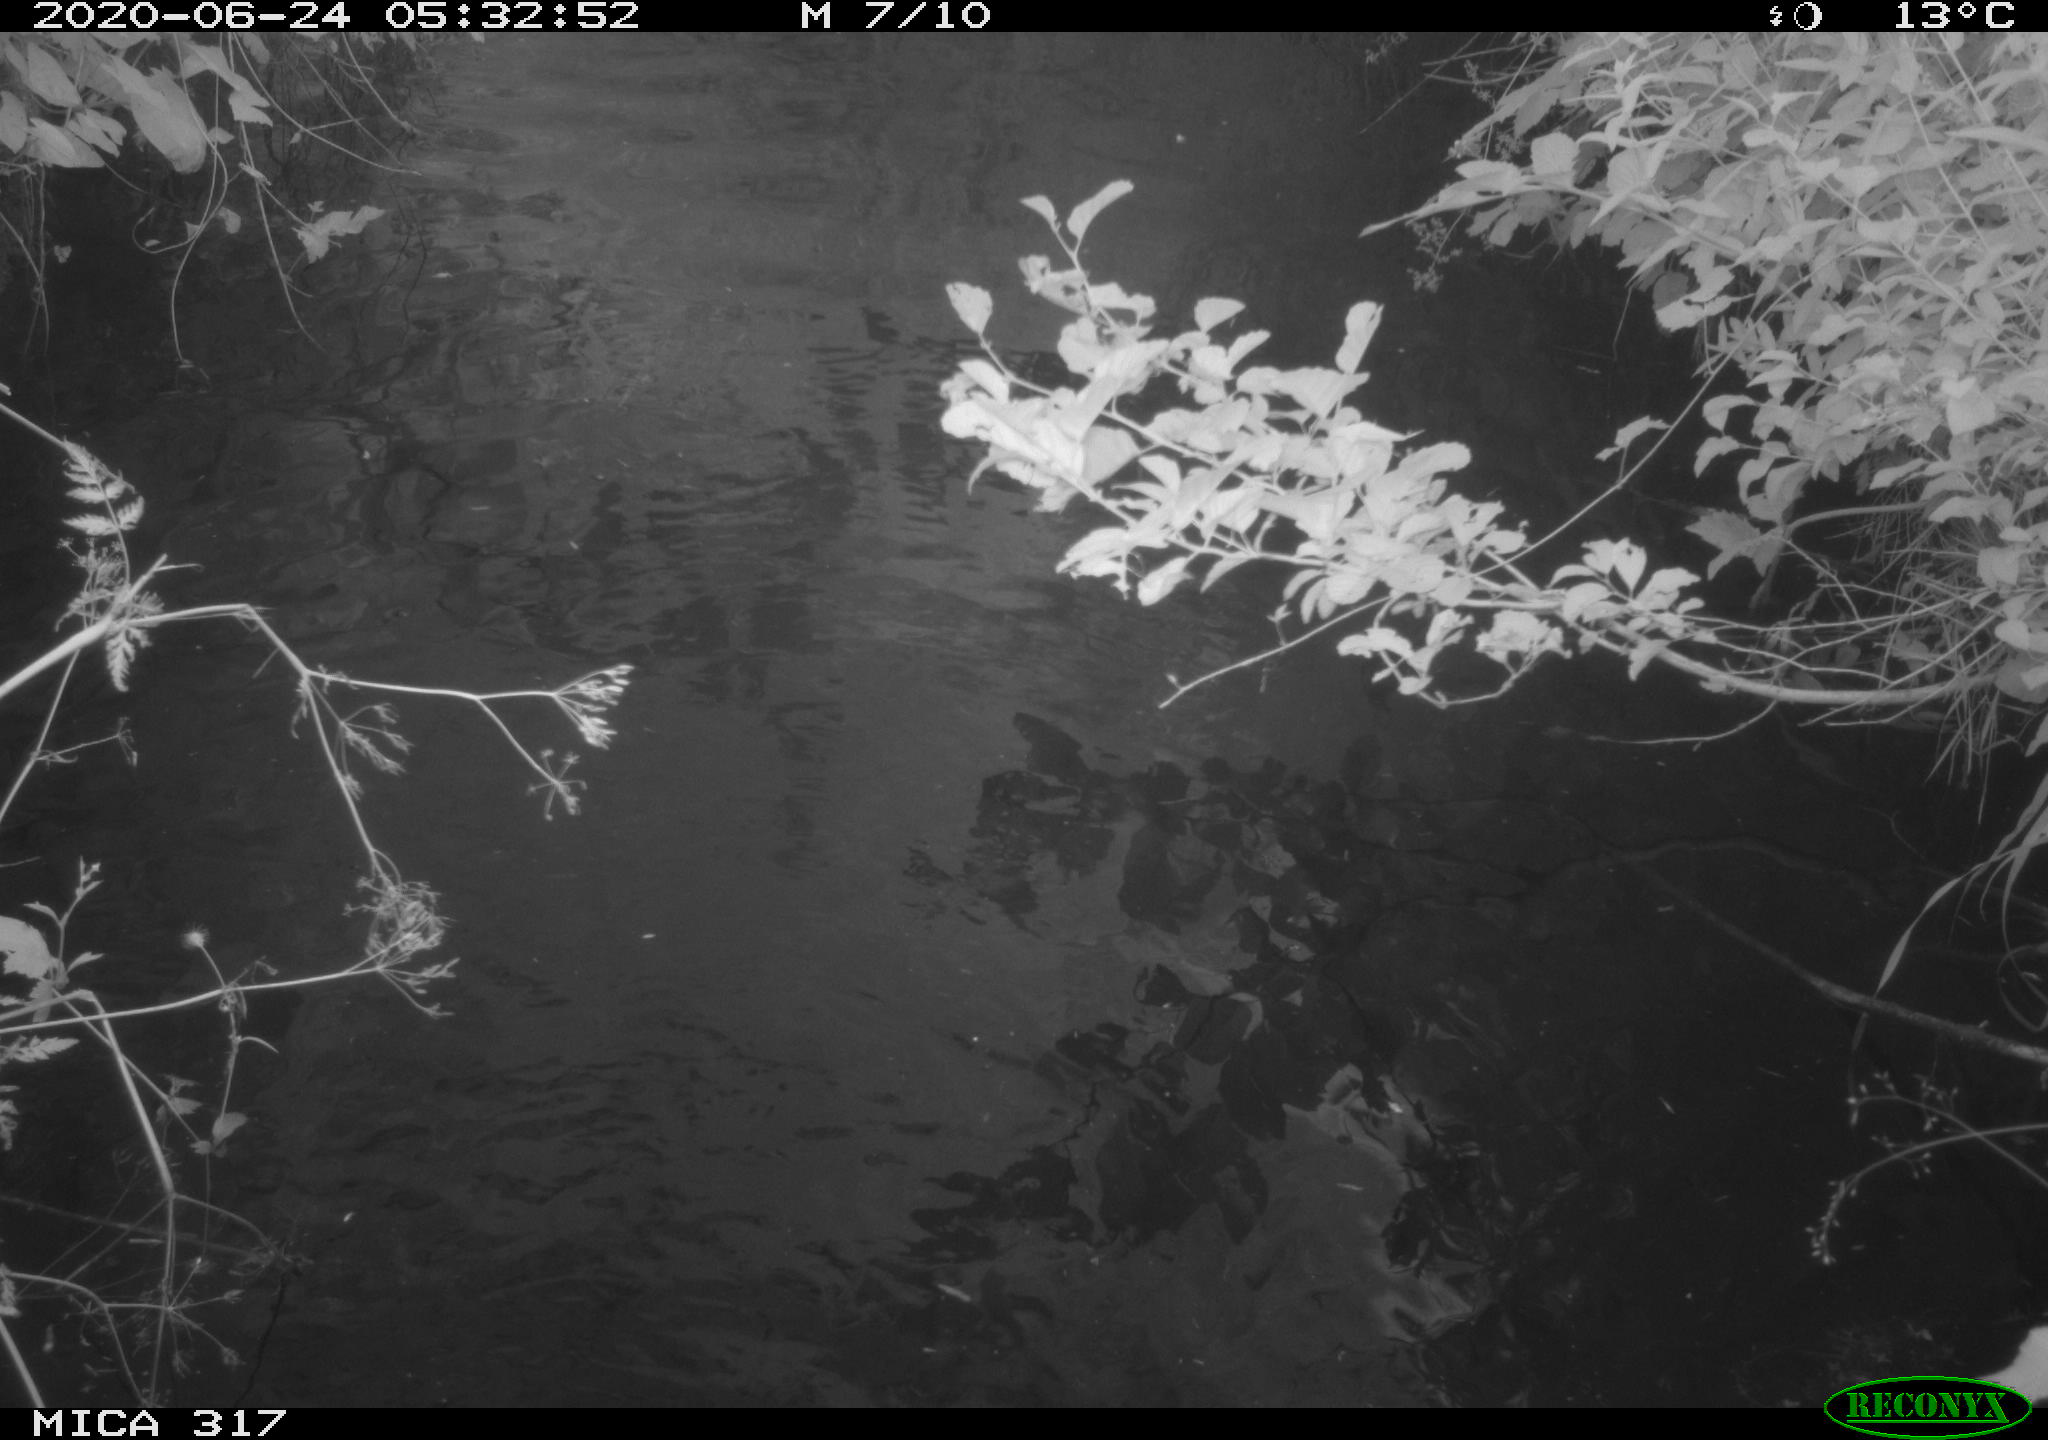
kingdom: Animalia
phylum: Chordata
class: Aves
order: Anseriformes
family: Anatidae
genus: Anas
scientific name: Anas platyrhynchos
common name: Mallard
